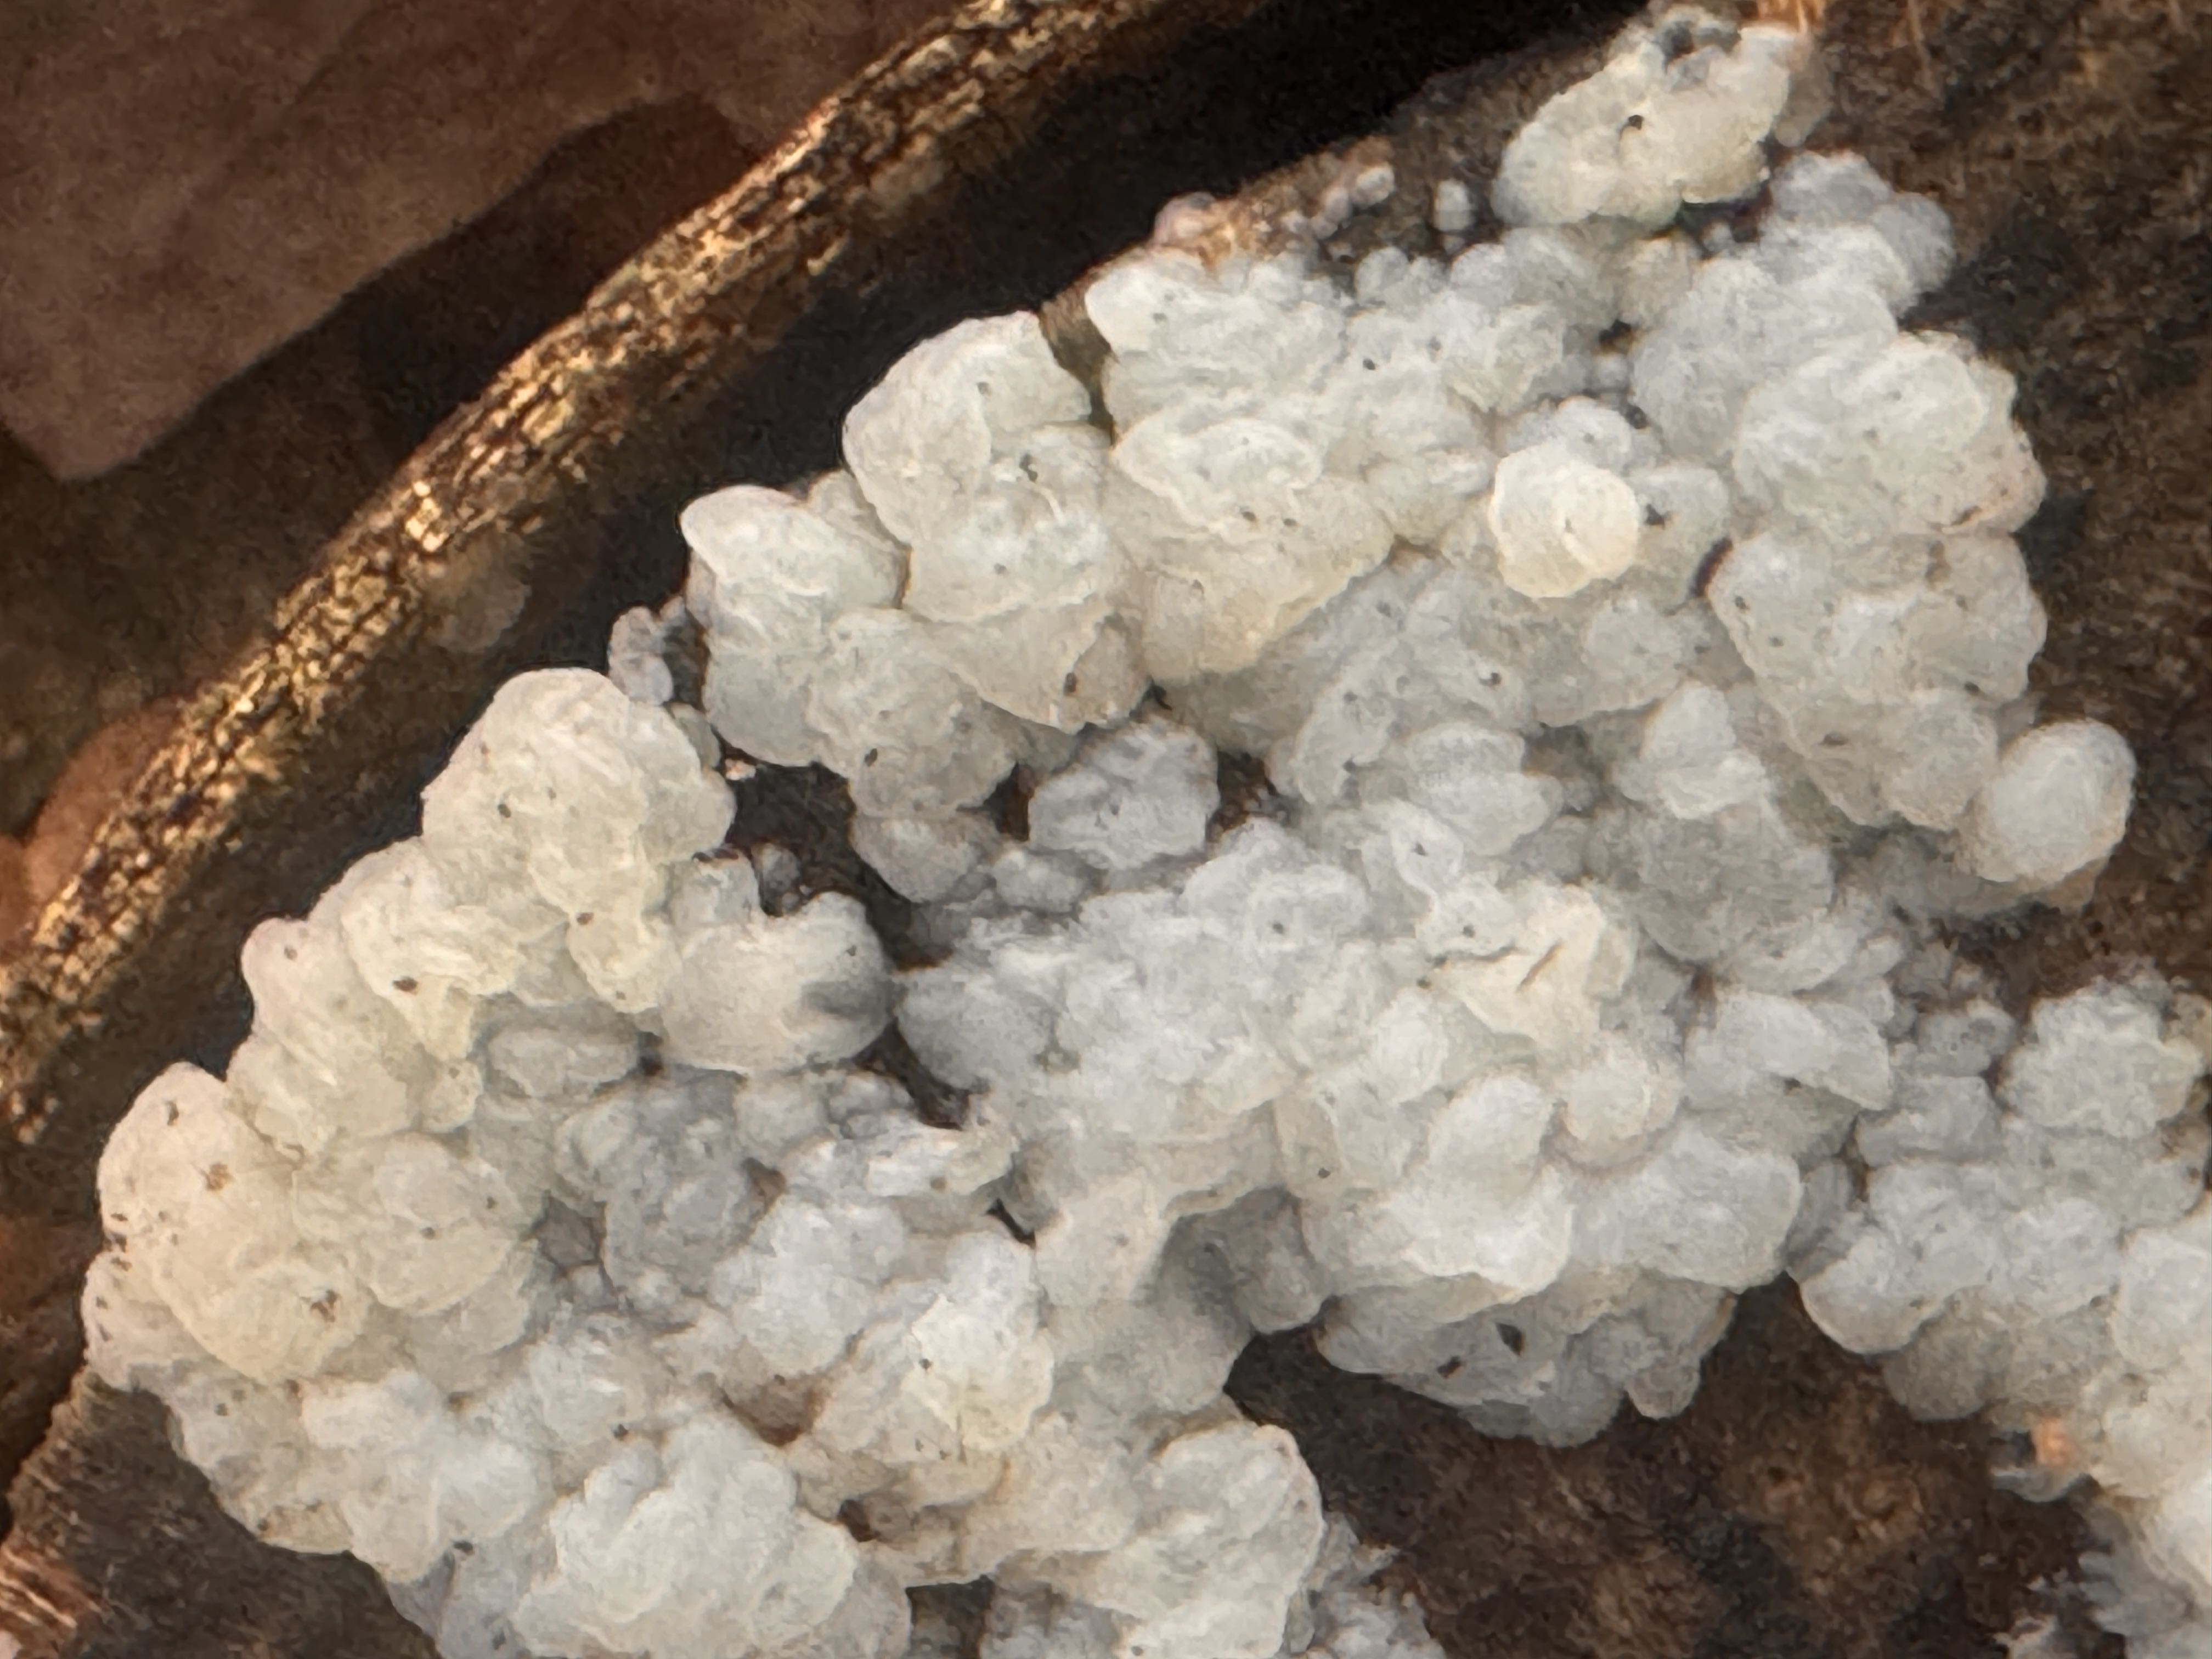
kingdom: Fungi
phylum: Basidiomycota
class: Agaricomycetes
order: Auriculariales
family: Hyaloriaceae
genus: Myxarium
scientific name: Myxarium nucleatum
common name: klar bævretop
